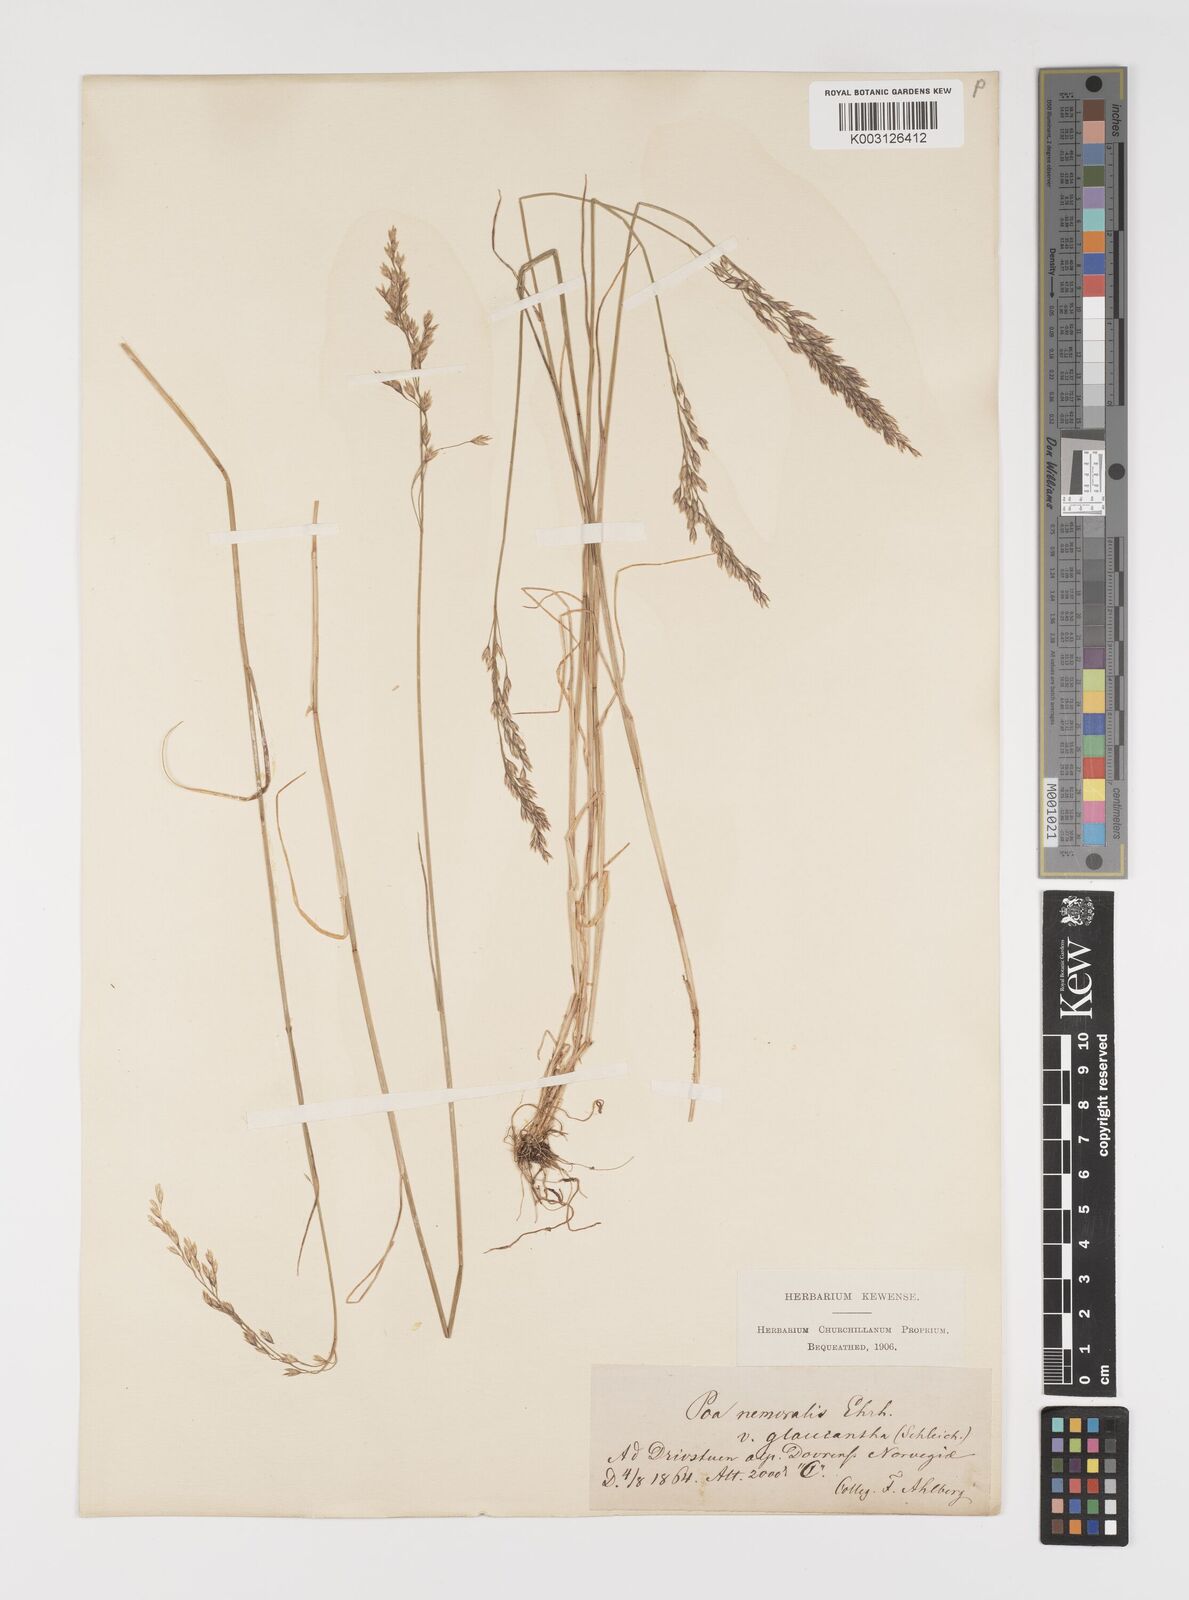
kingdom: Plantae
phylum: Tracheophyta
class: Liliopsida
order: Poales
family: Poaceae
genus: Poa
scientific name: Poa nemoralis
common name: Wood bluegrass
